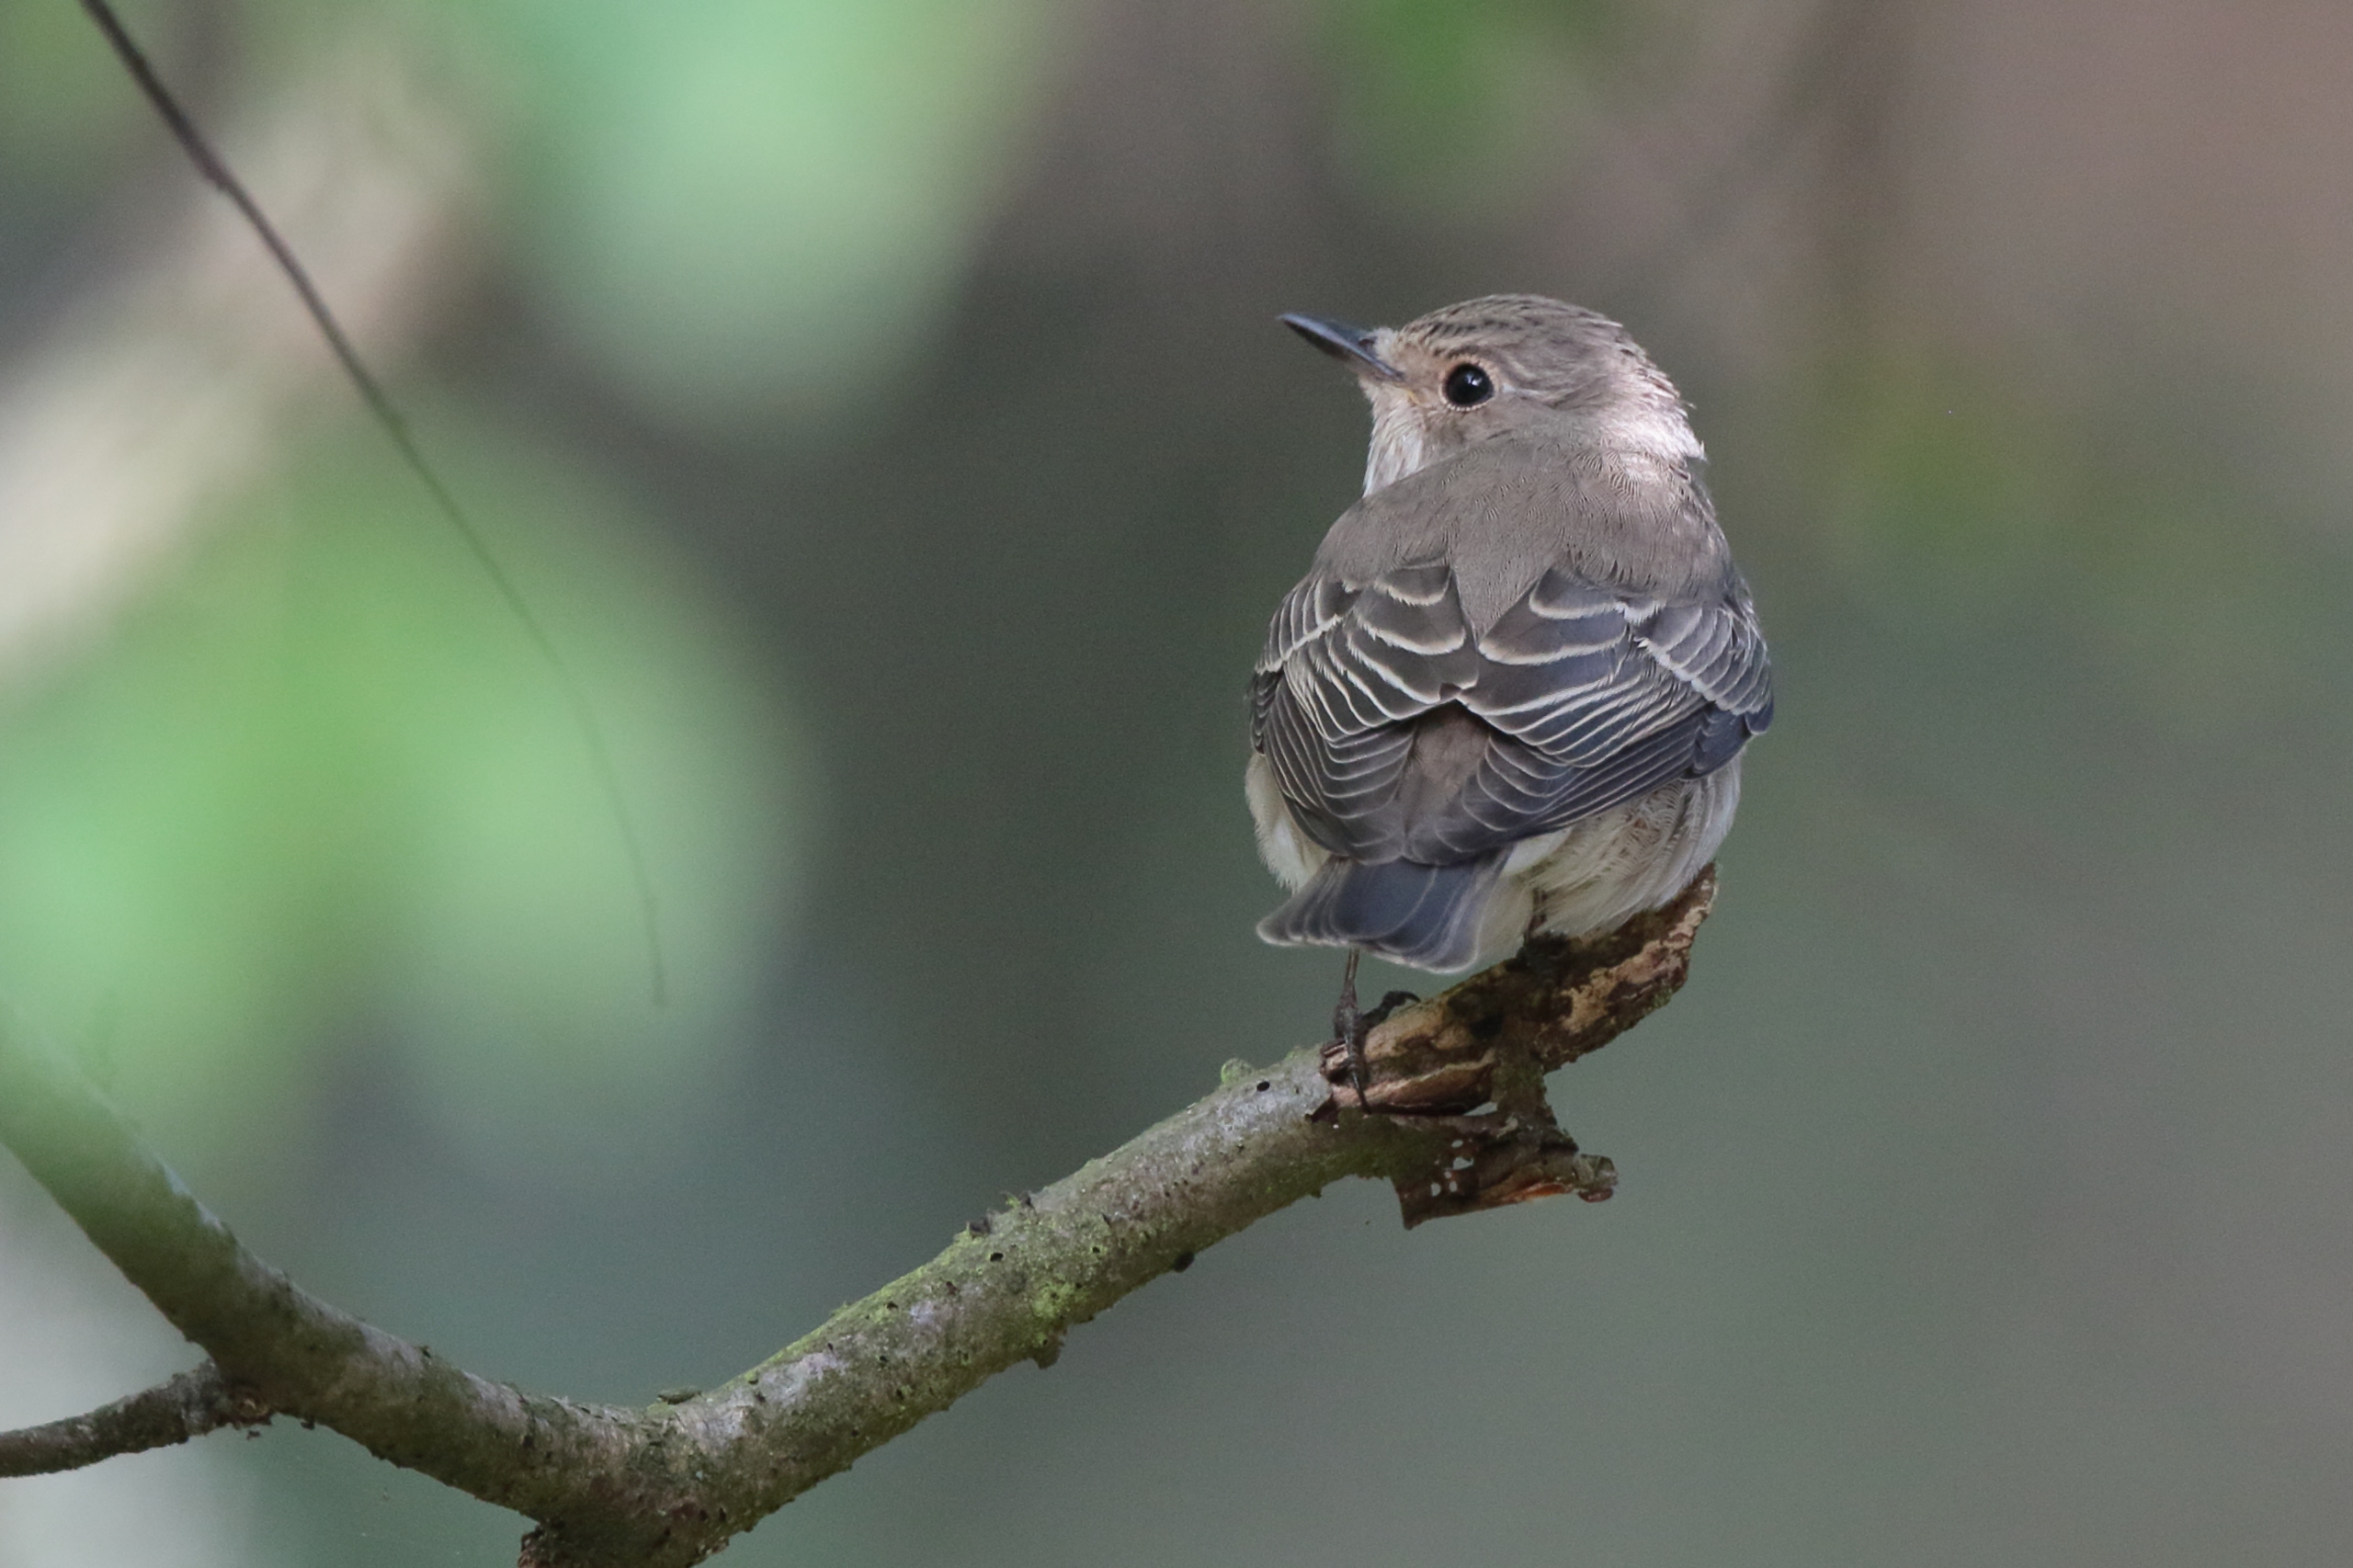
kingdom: Animalia
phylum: Chordata
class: Aves
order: Passeriformes
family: Muscicapidae
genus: Muscicapa
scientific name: Muscicapa striata
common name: Grå fluesnapper
